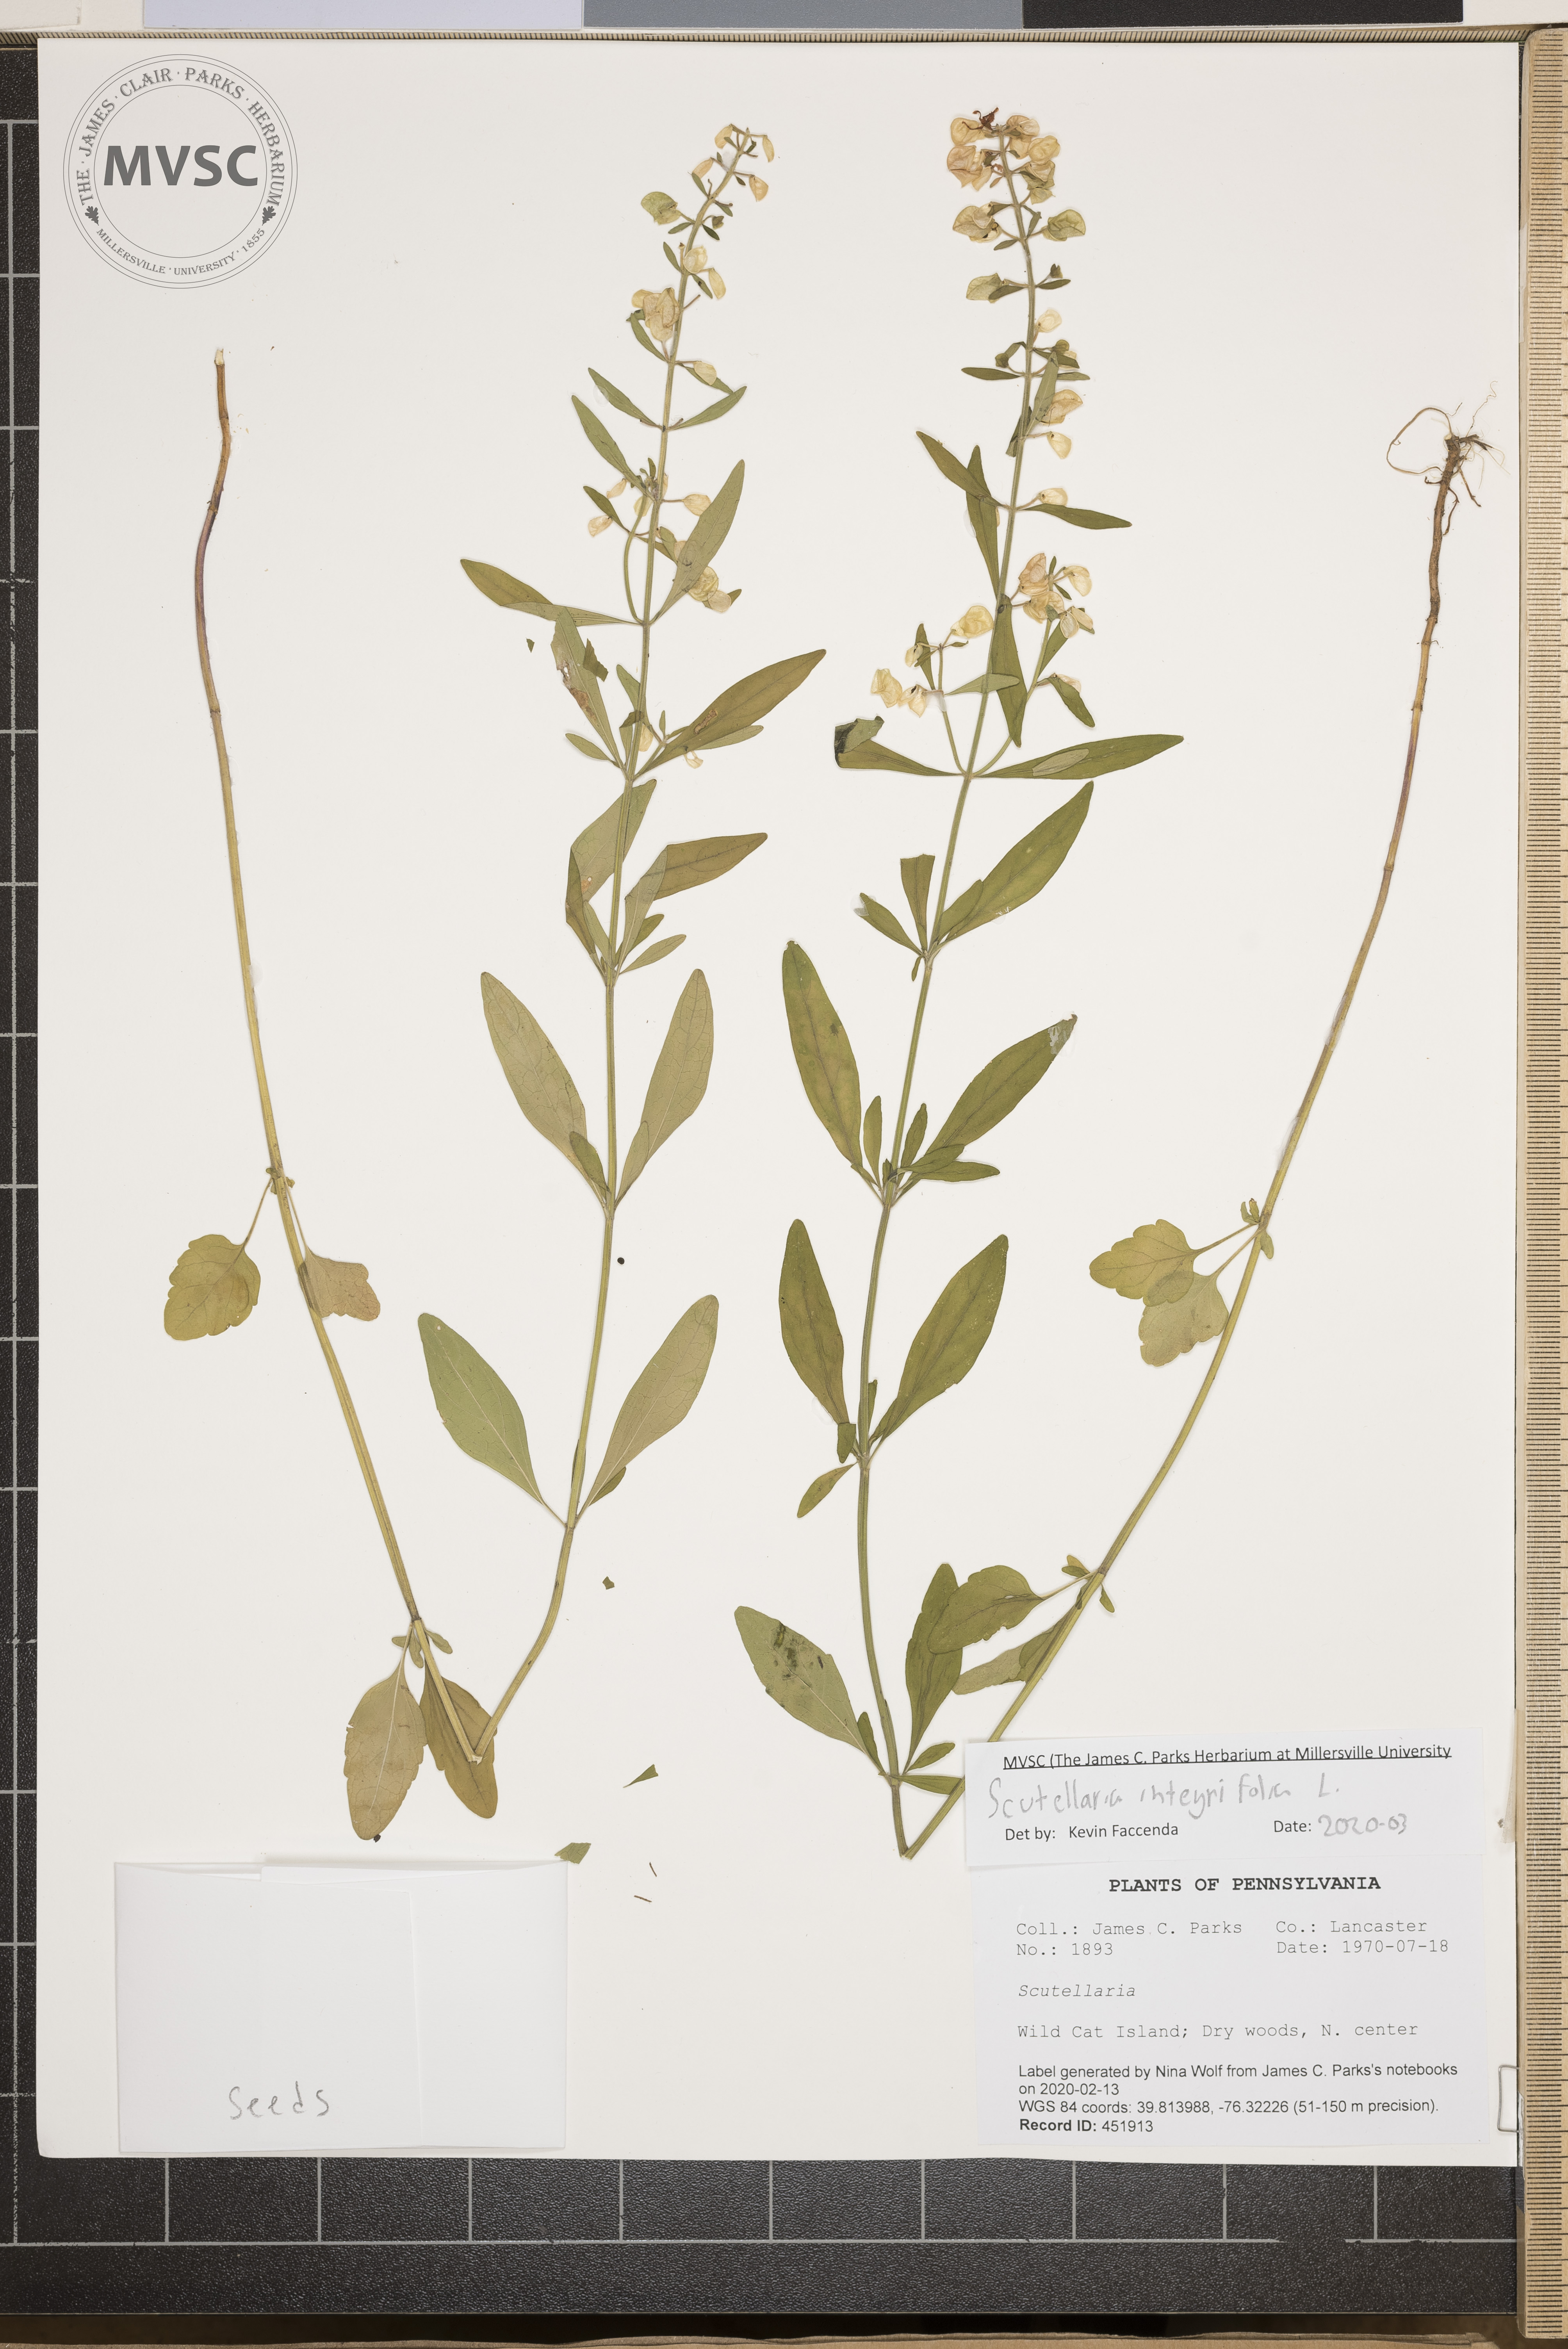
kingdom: Plantae
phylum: Tracheophyta
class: Magnoliopsida
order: Lamiales
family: Lamiaceae
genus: Scutellaria
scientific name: Scutellaria integrifolia
